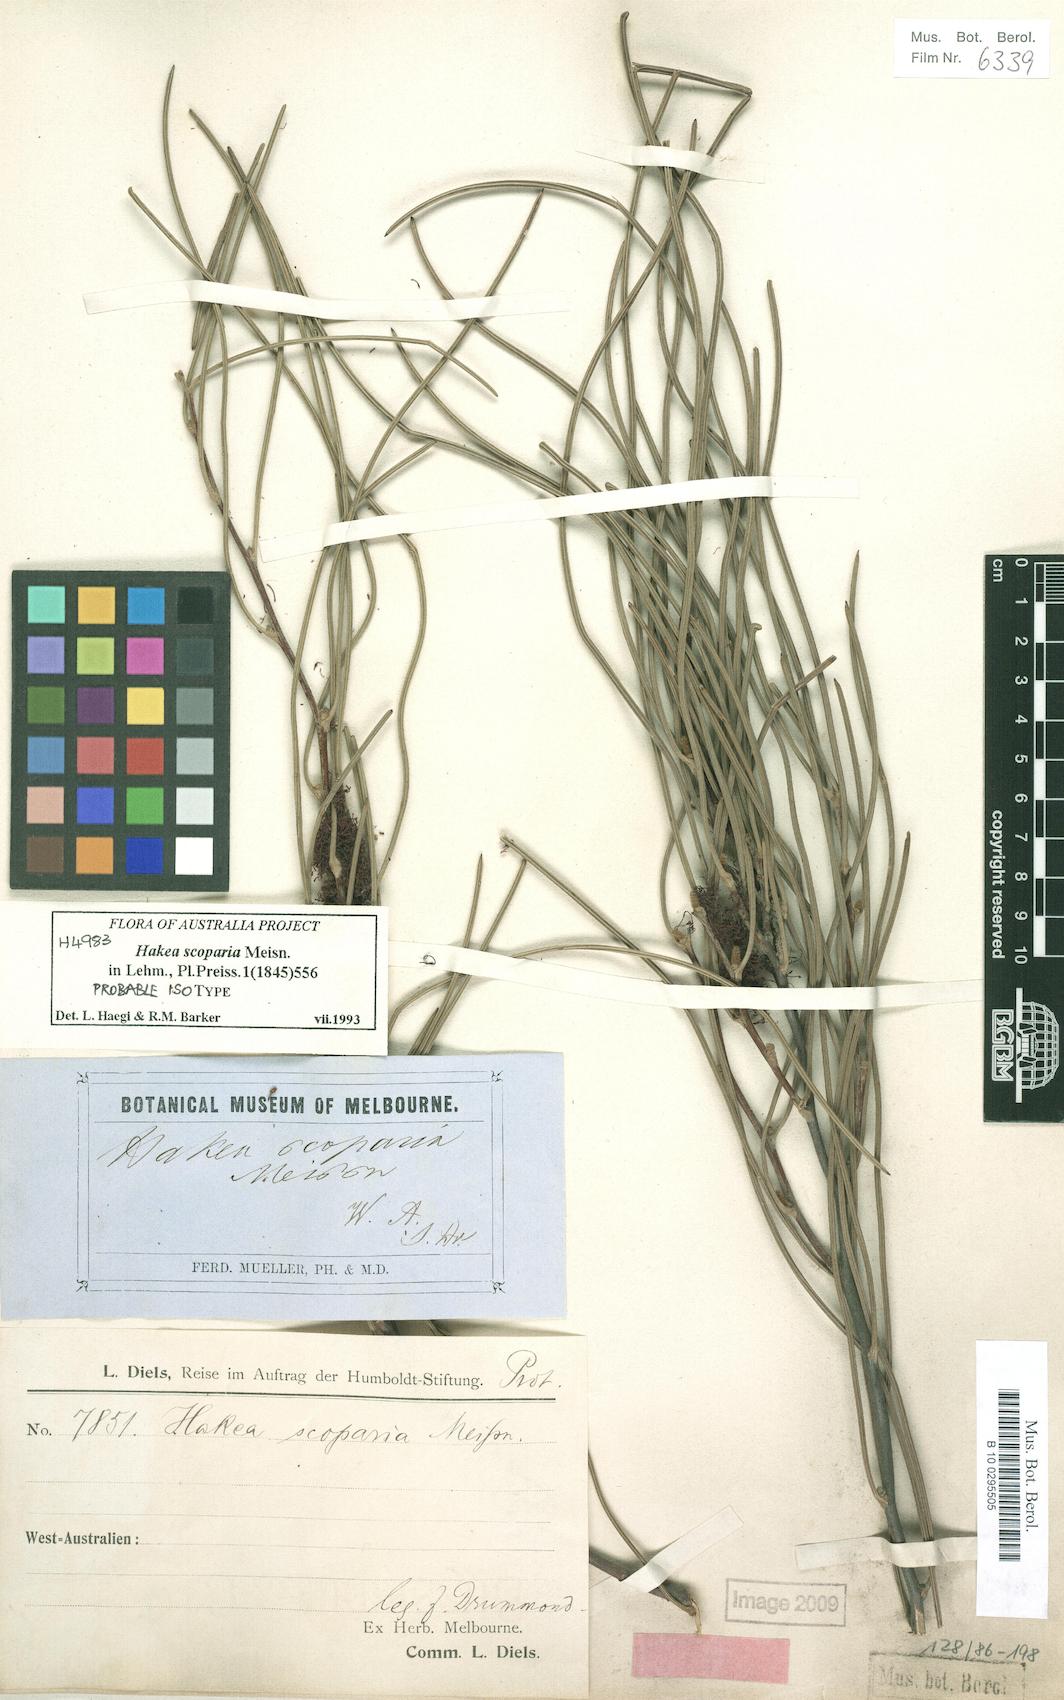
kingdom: Plantae
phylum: Tracheophyta
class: Magnoliopsida
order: Proteales
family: Proteaceae
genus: Hakea
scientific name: Hakea scoparia
